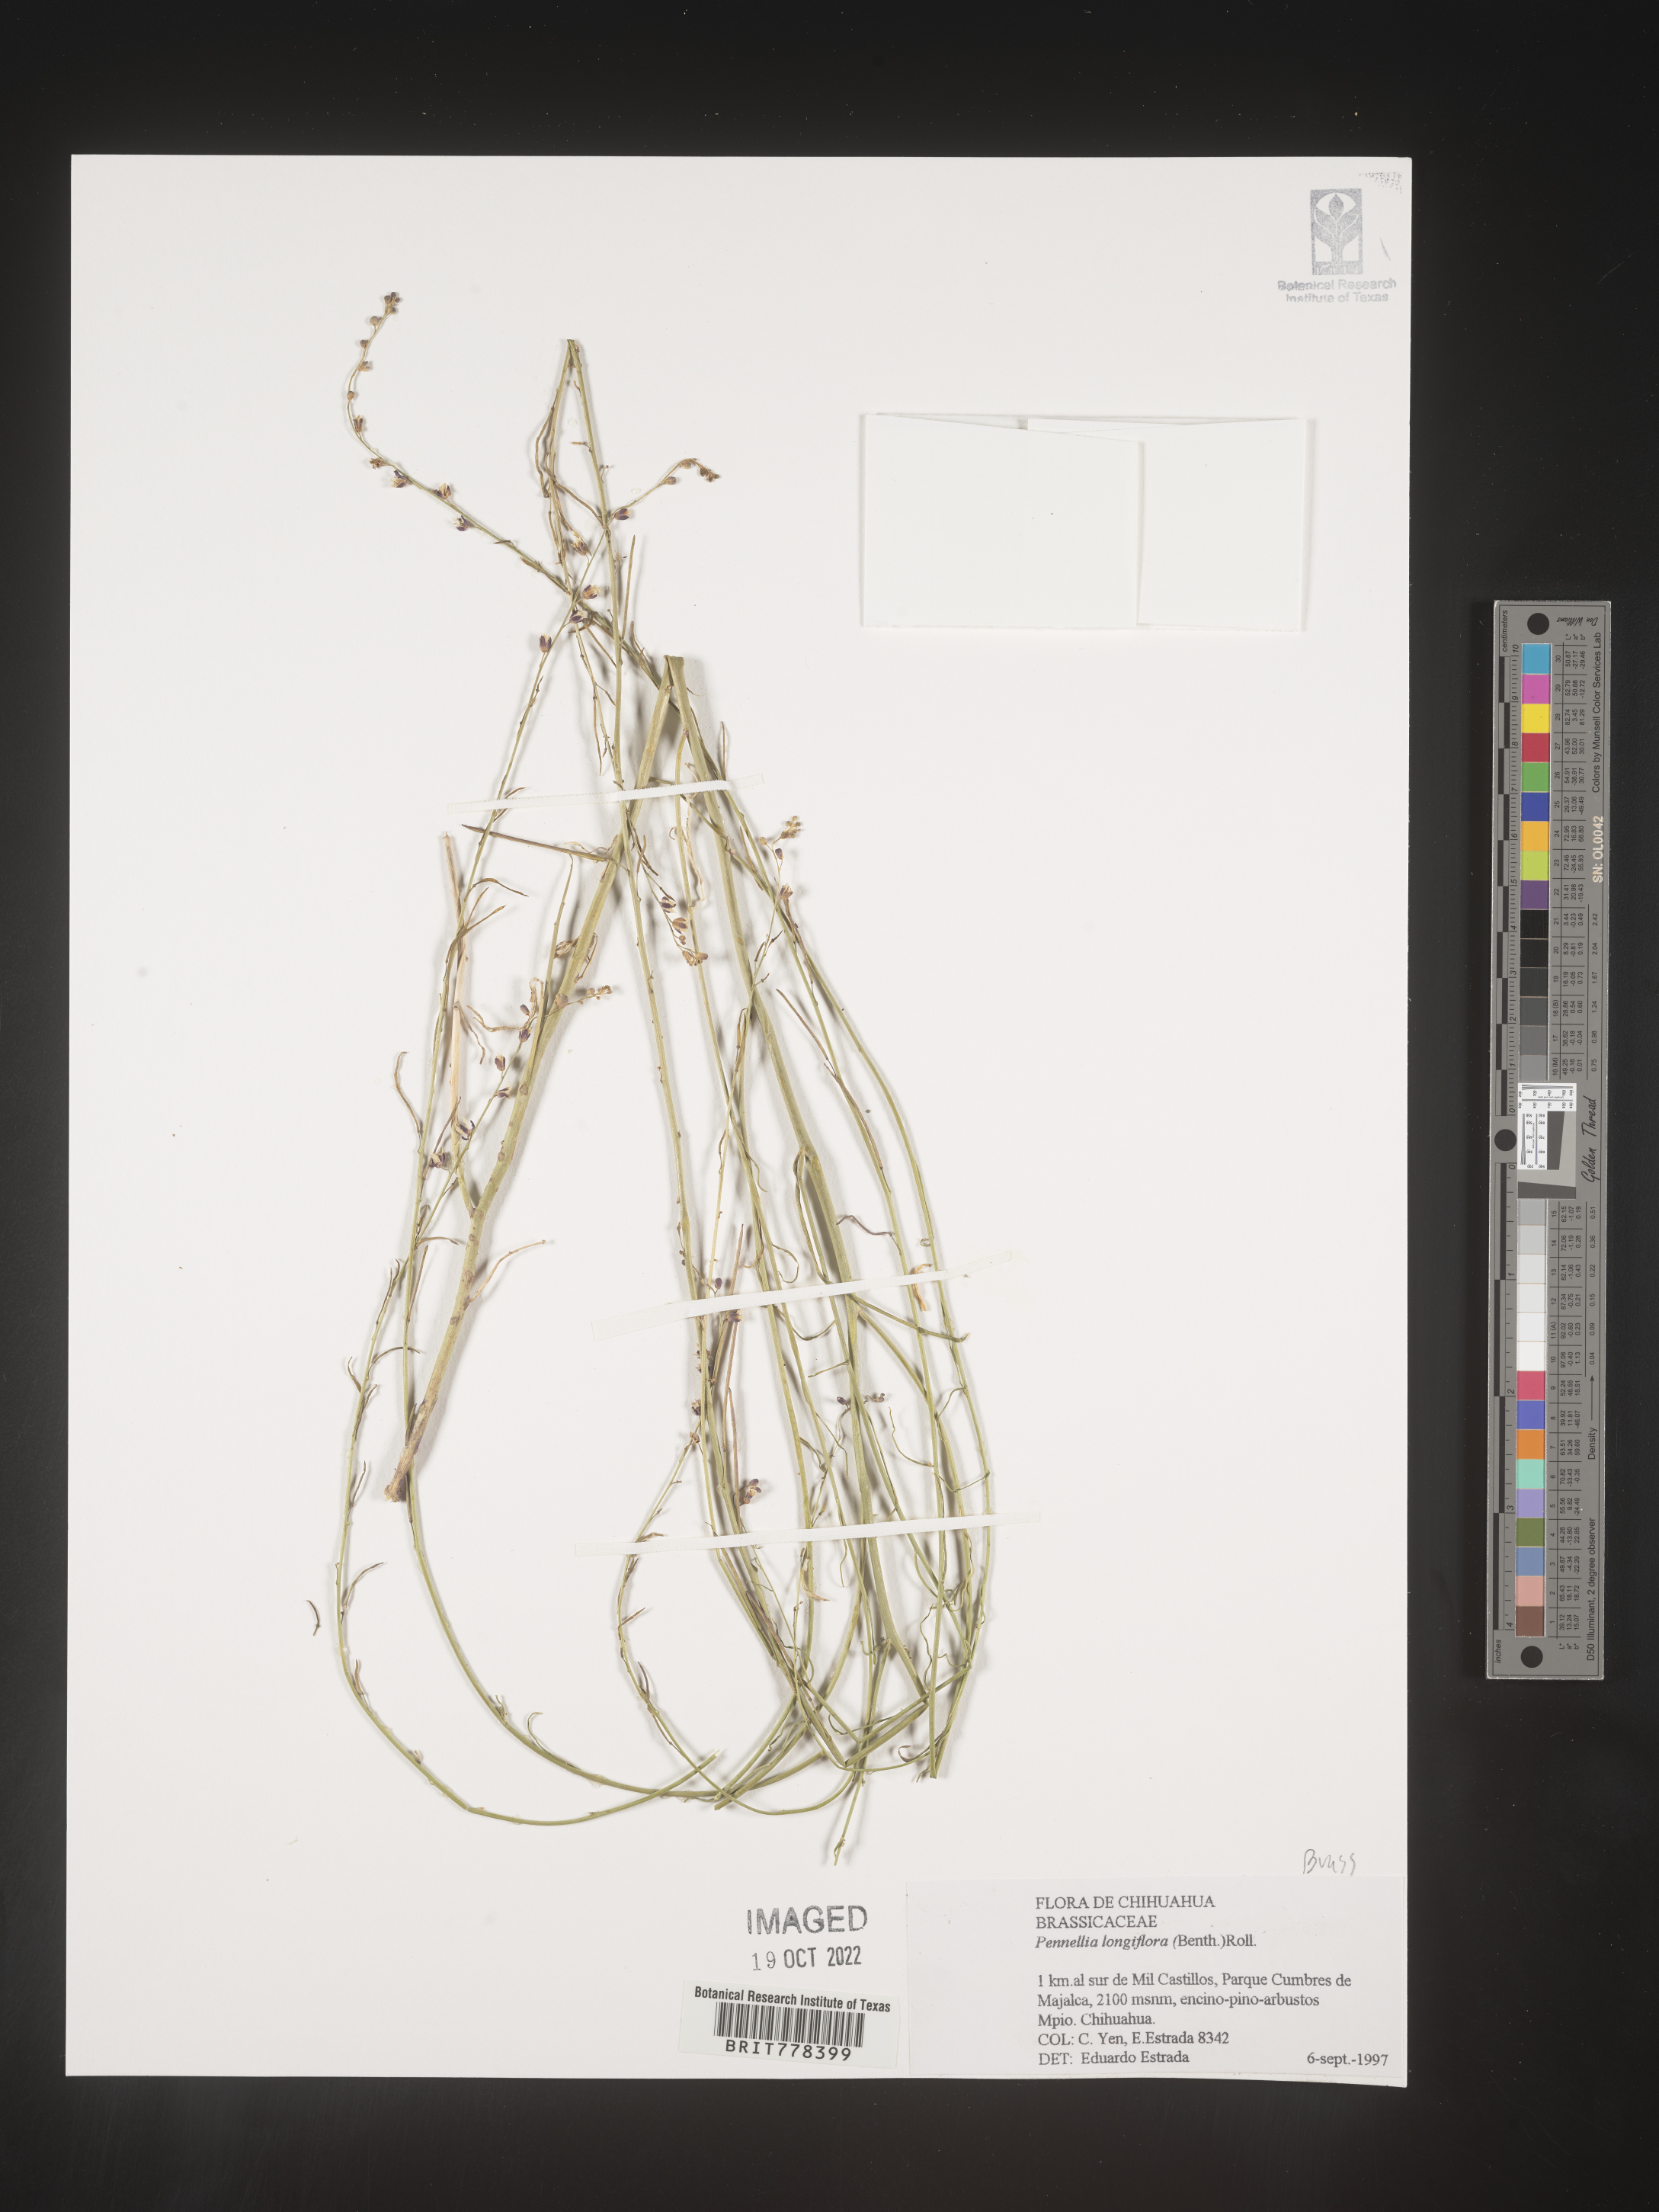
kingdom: Plantae
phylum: Tracheophyta
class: Magnoliopsida
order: Brassicales
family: Brassicaceae
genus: Pennellia
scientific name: Pennellia
